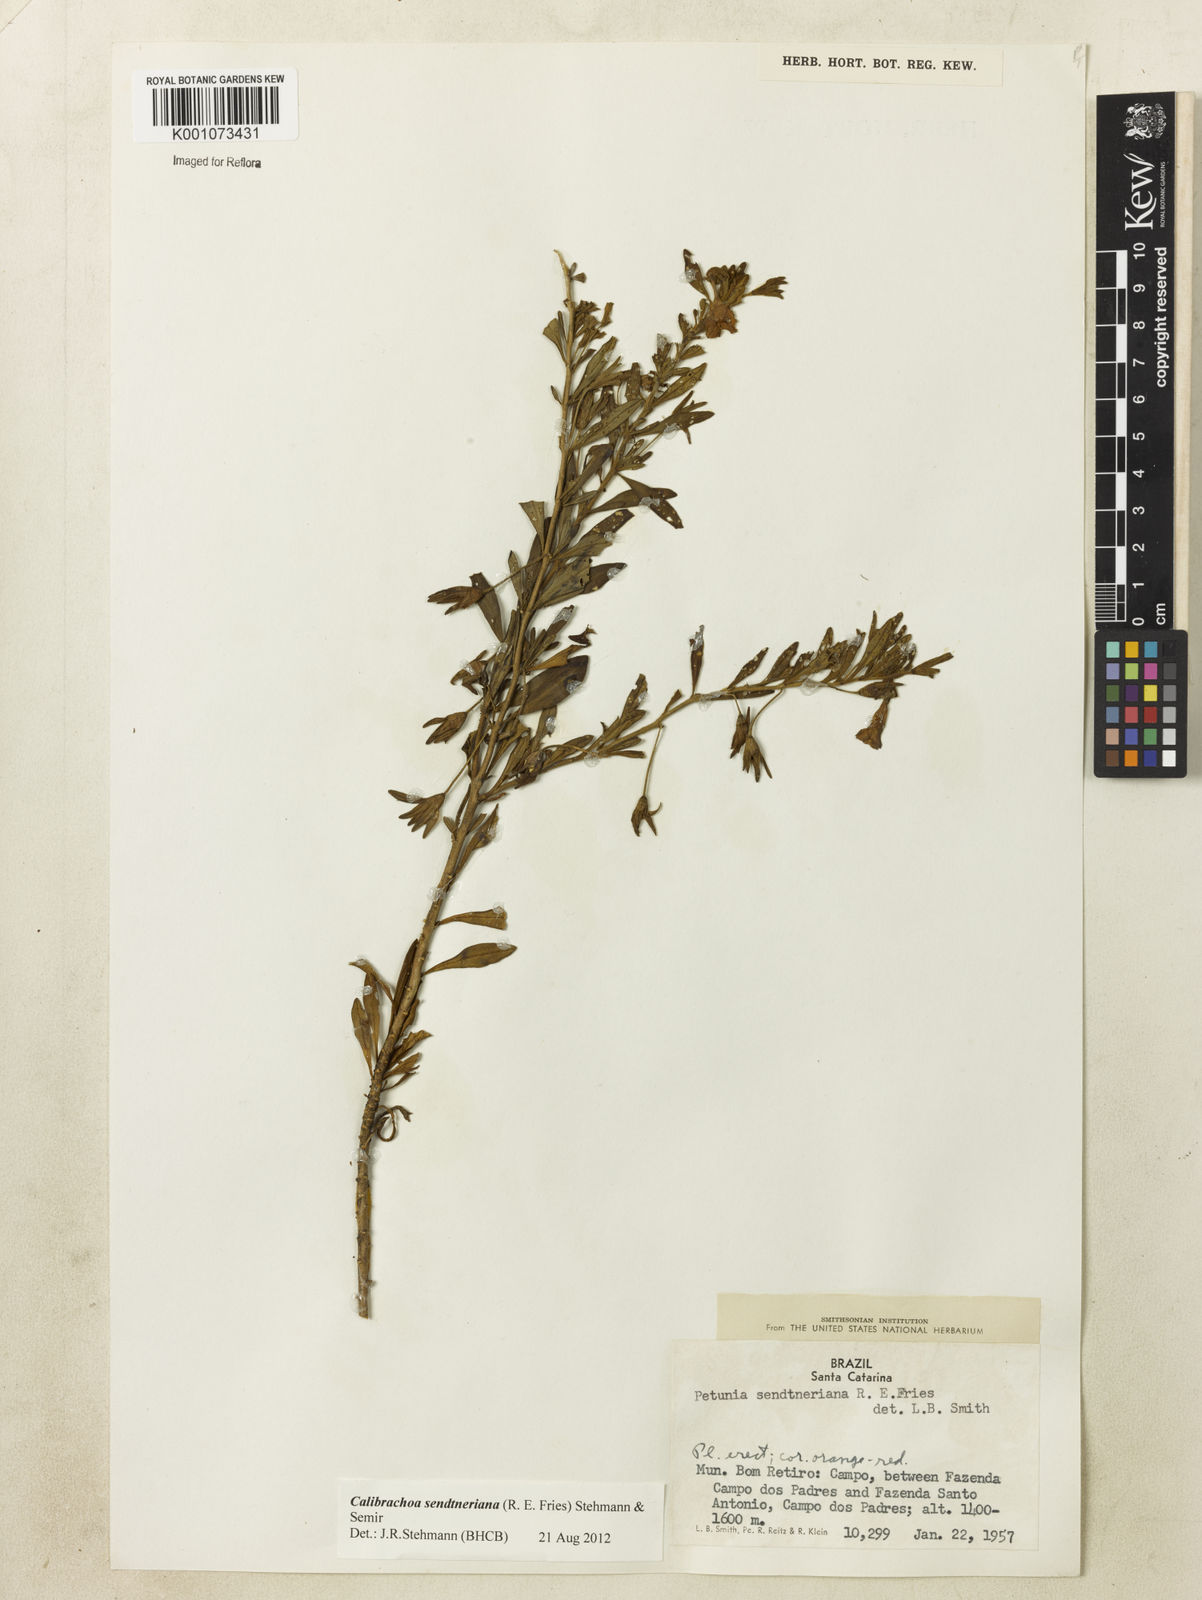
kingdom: Plantae
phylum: Tracheophyta
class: Magnoliopsida
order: Solanales
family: Solanaceae
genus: Calibrachoa
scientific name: Calibrachoa sendtneriana
